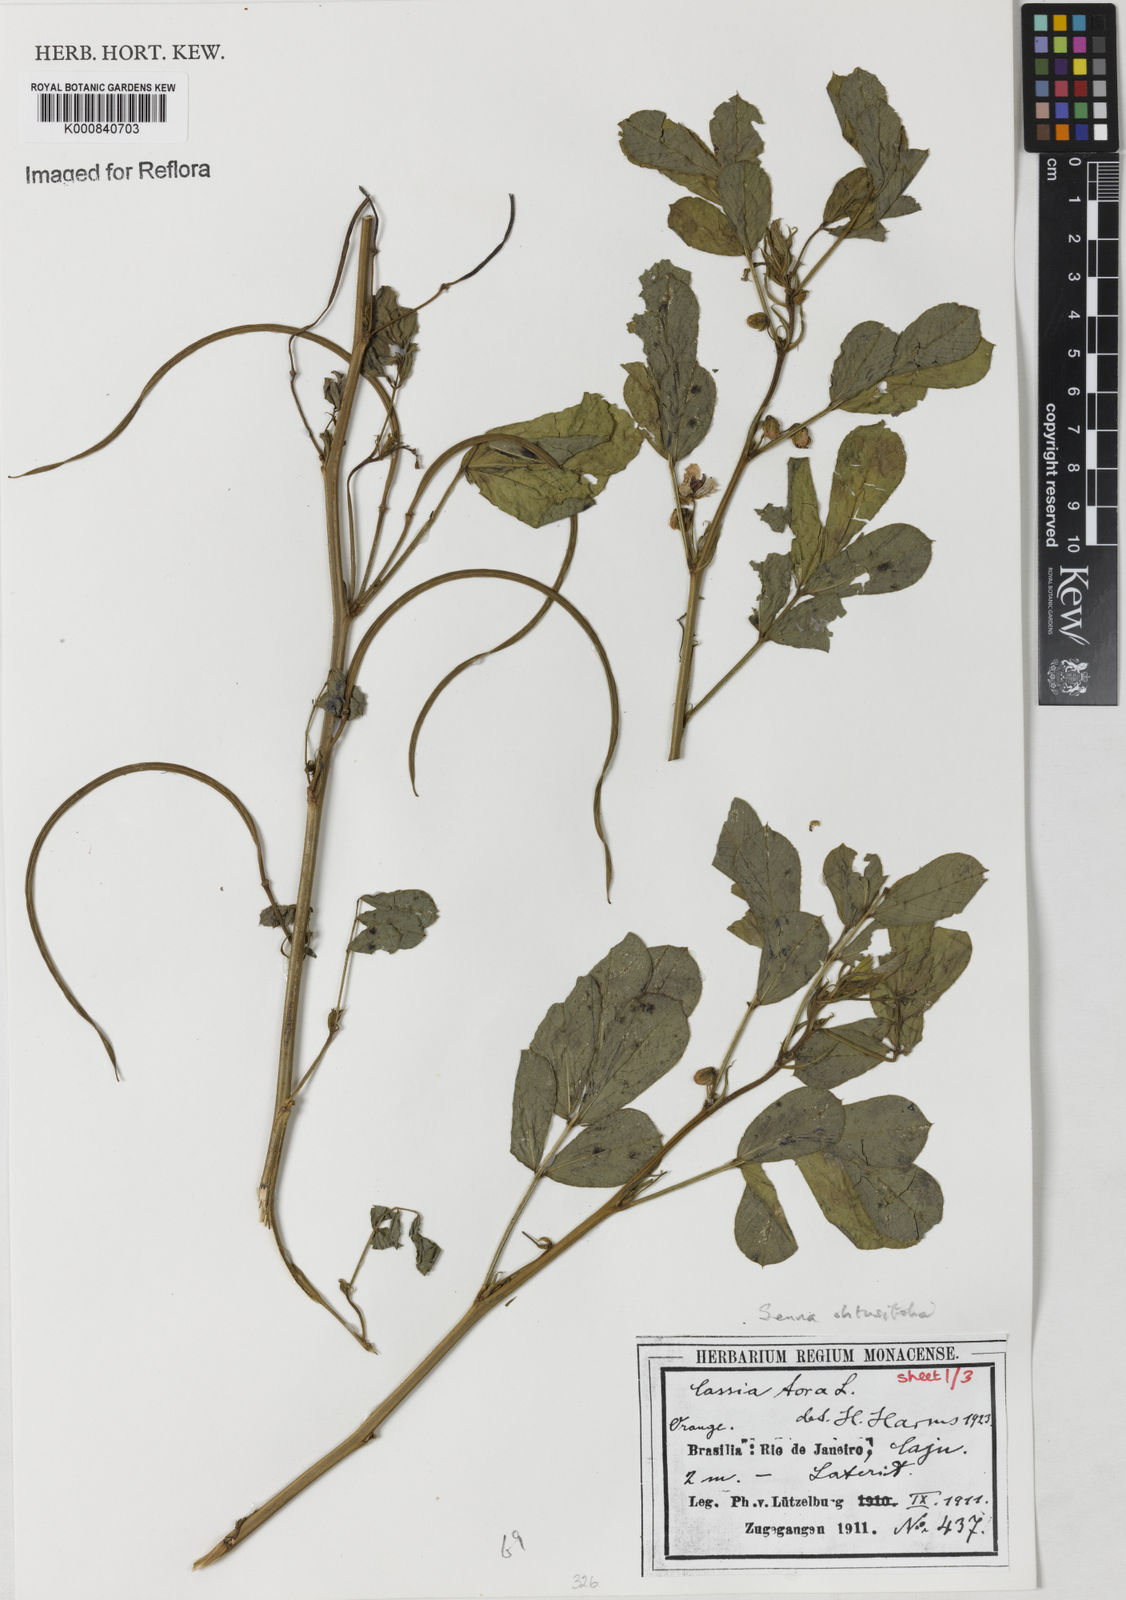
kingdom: Plantae
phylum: Tracheophyta
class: Magnoliopsida
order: Fabales
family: Fabaceae
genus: Senna
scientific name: Senna obtusifolia
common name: Java-bean
